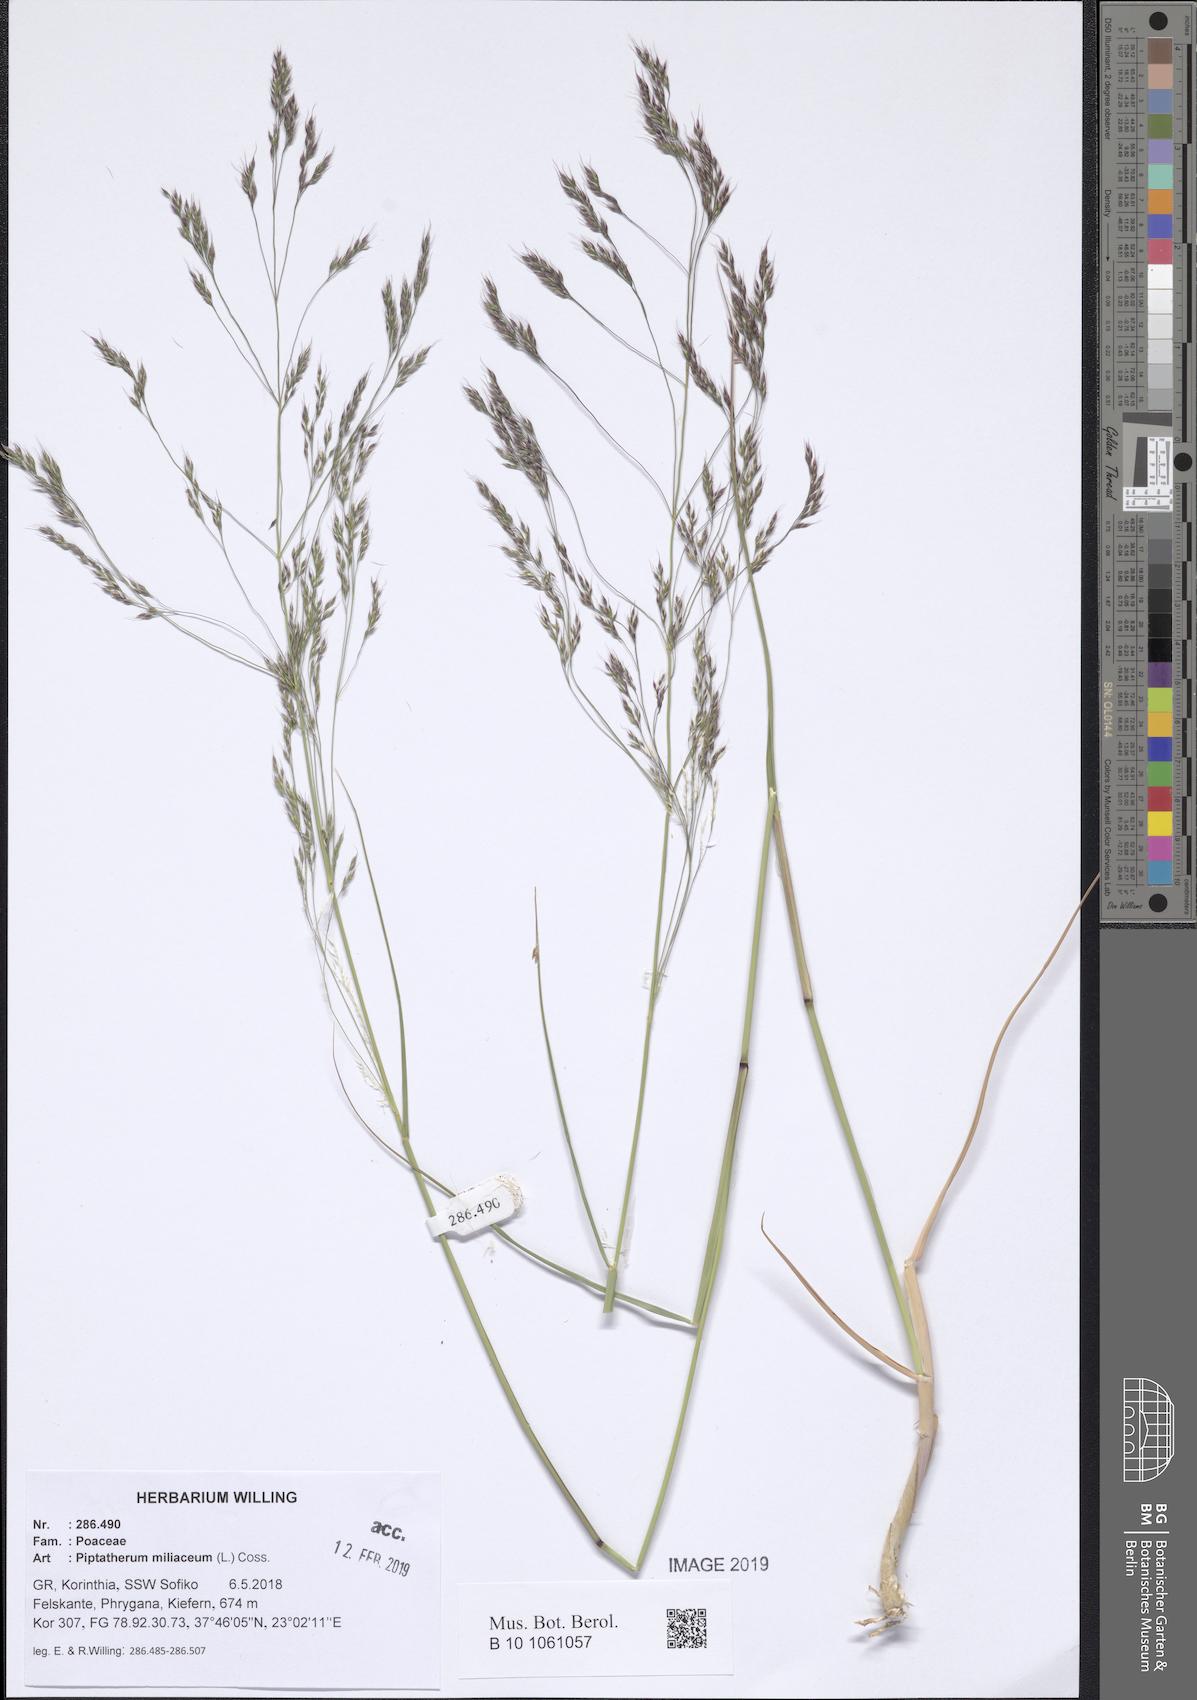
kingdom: Plantae
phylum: Tracheophyta
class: Liliopsida
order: Poales
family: Poaceae
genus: Oloptum
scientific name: Oloptum miliaceum
